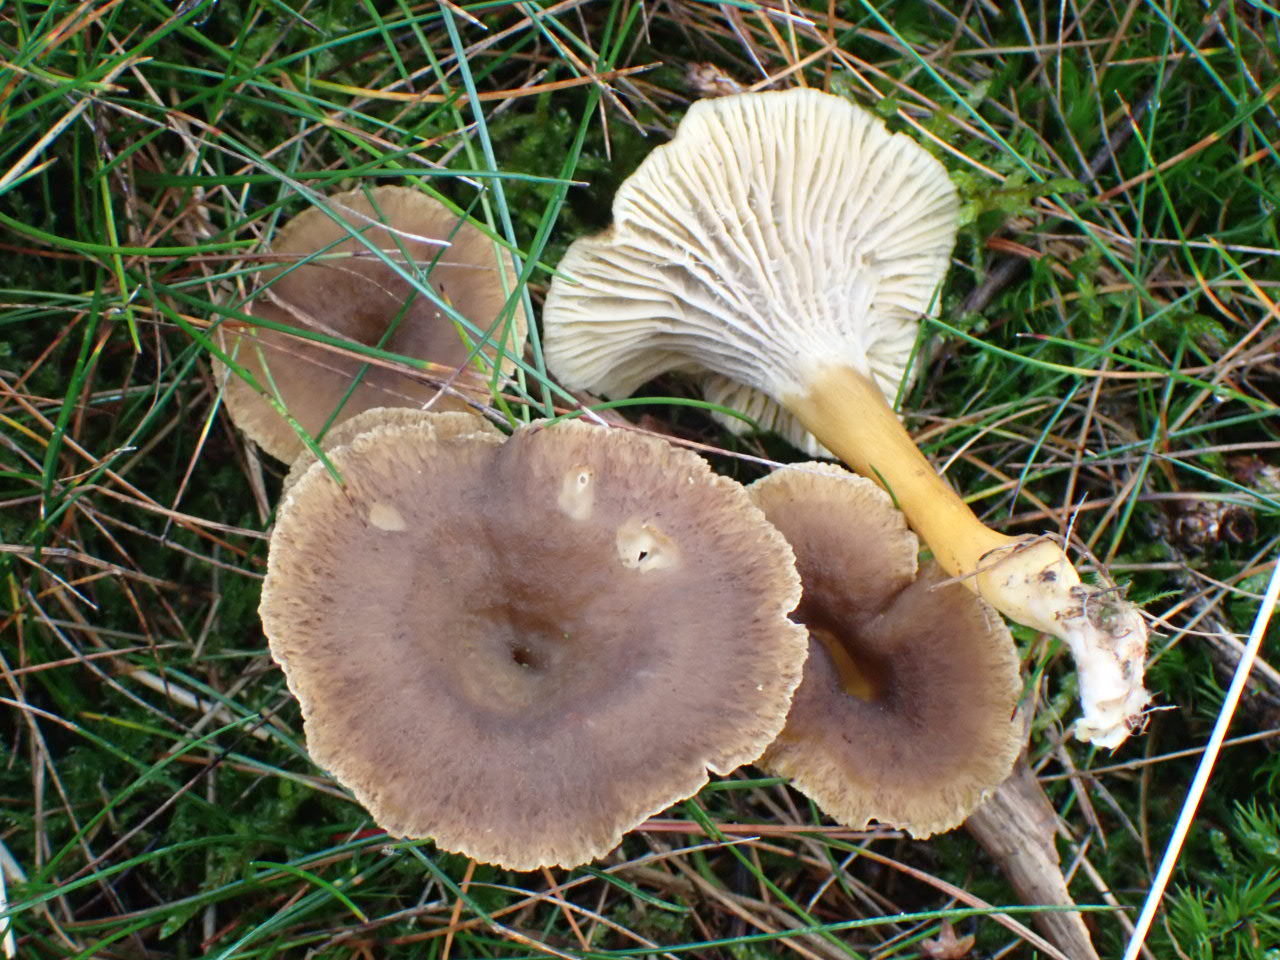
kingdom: Fungi
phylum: Basidiomycota
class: Agaricomycetes
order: Cantharellales
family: Hydnaceae
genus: Craterellus
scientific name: Craterellus tubaeformis
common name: tragt-kantarel
